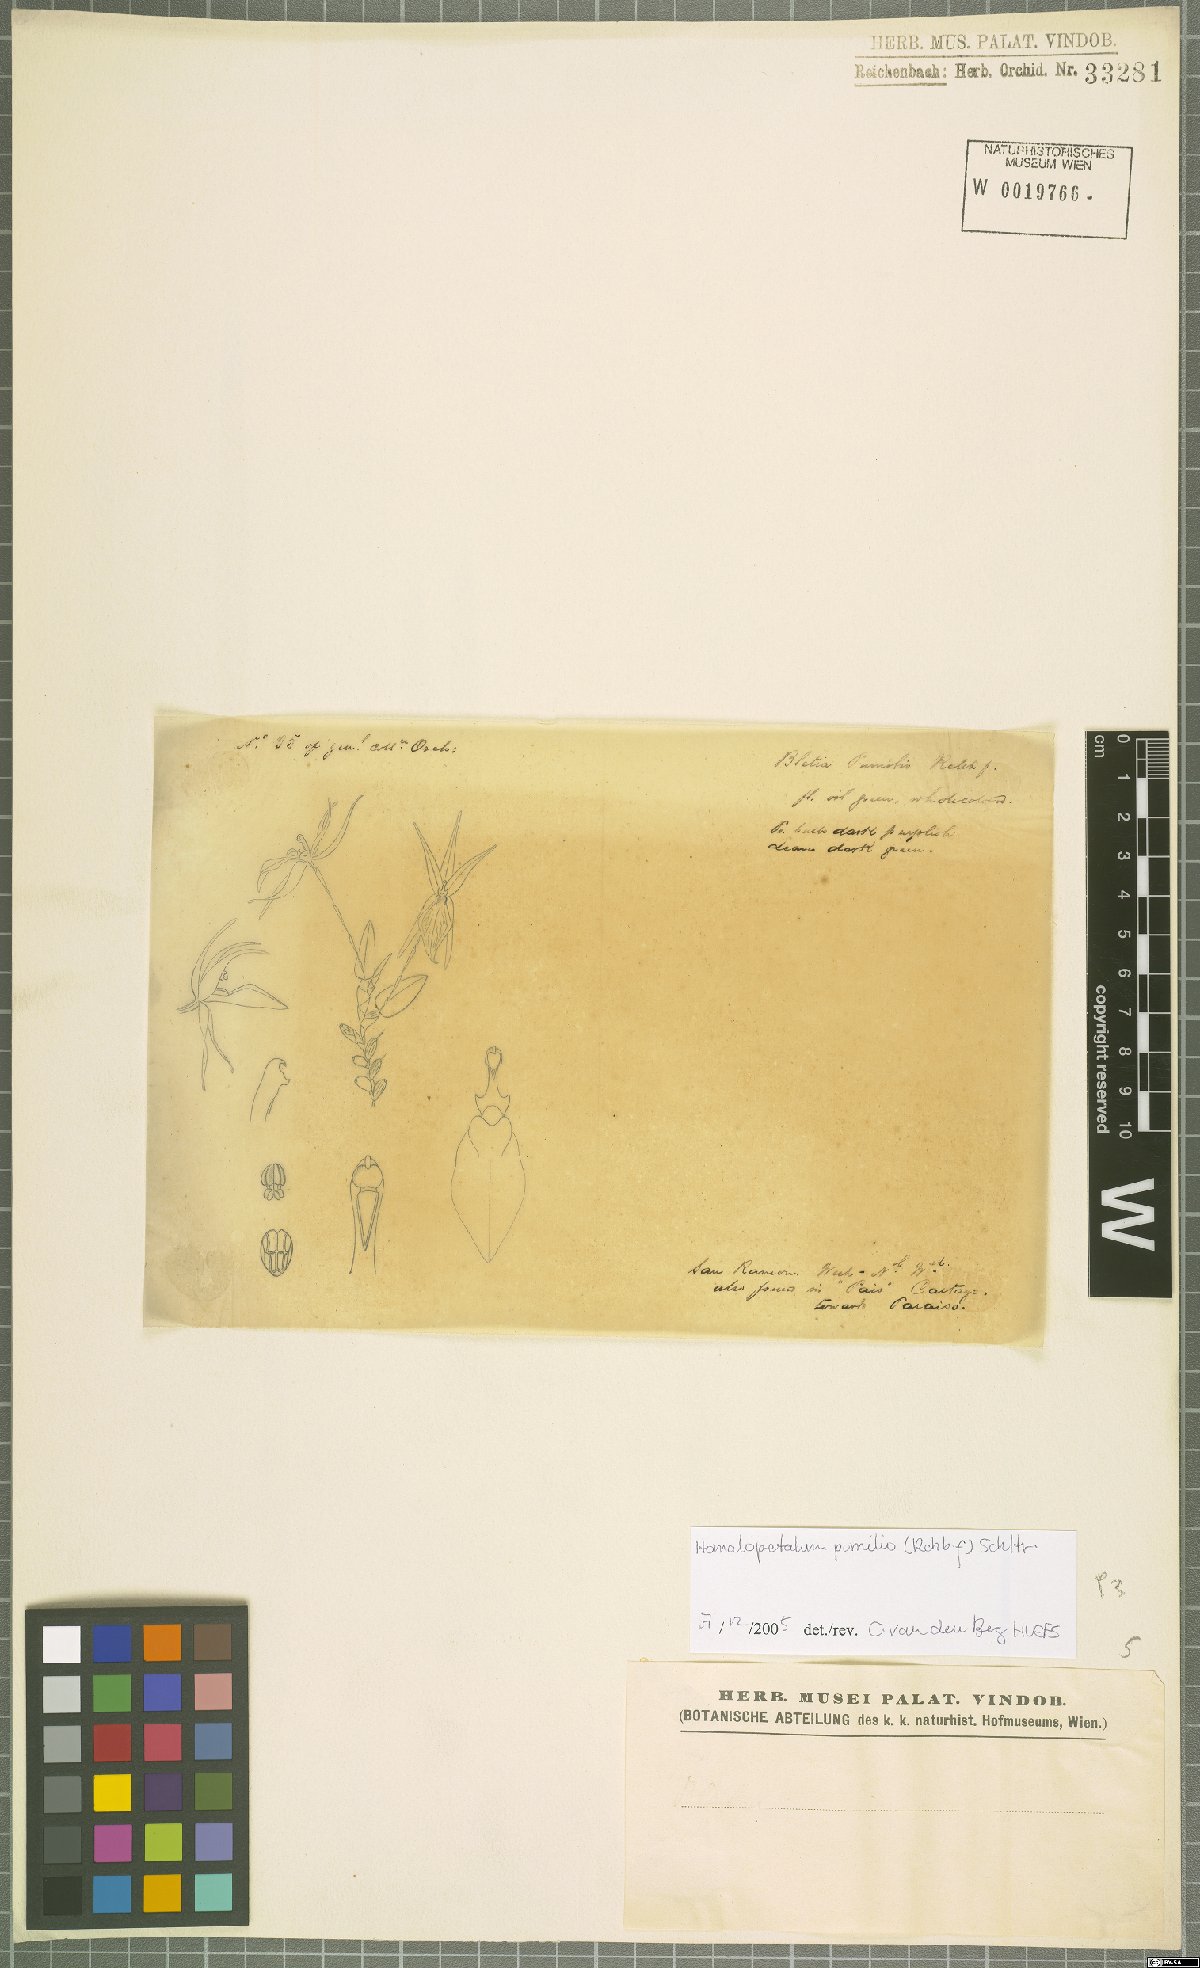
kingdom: Plantae
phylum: Tracheophyta
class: Liliopsida
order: Asparagales
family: Orchidaceae
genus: Homalopetalum
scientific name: Homalopetalum pumilio
